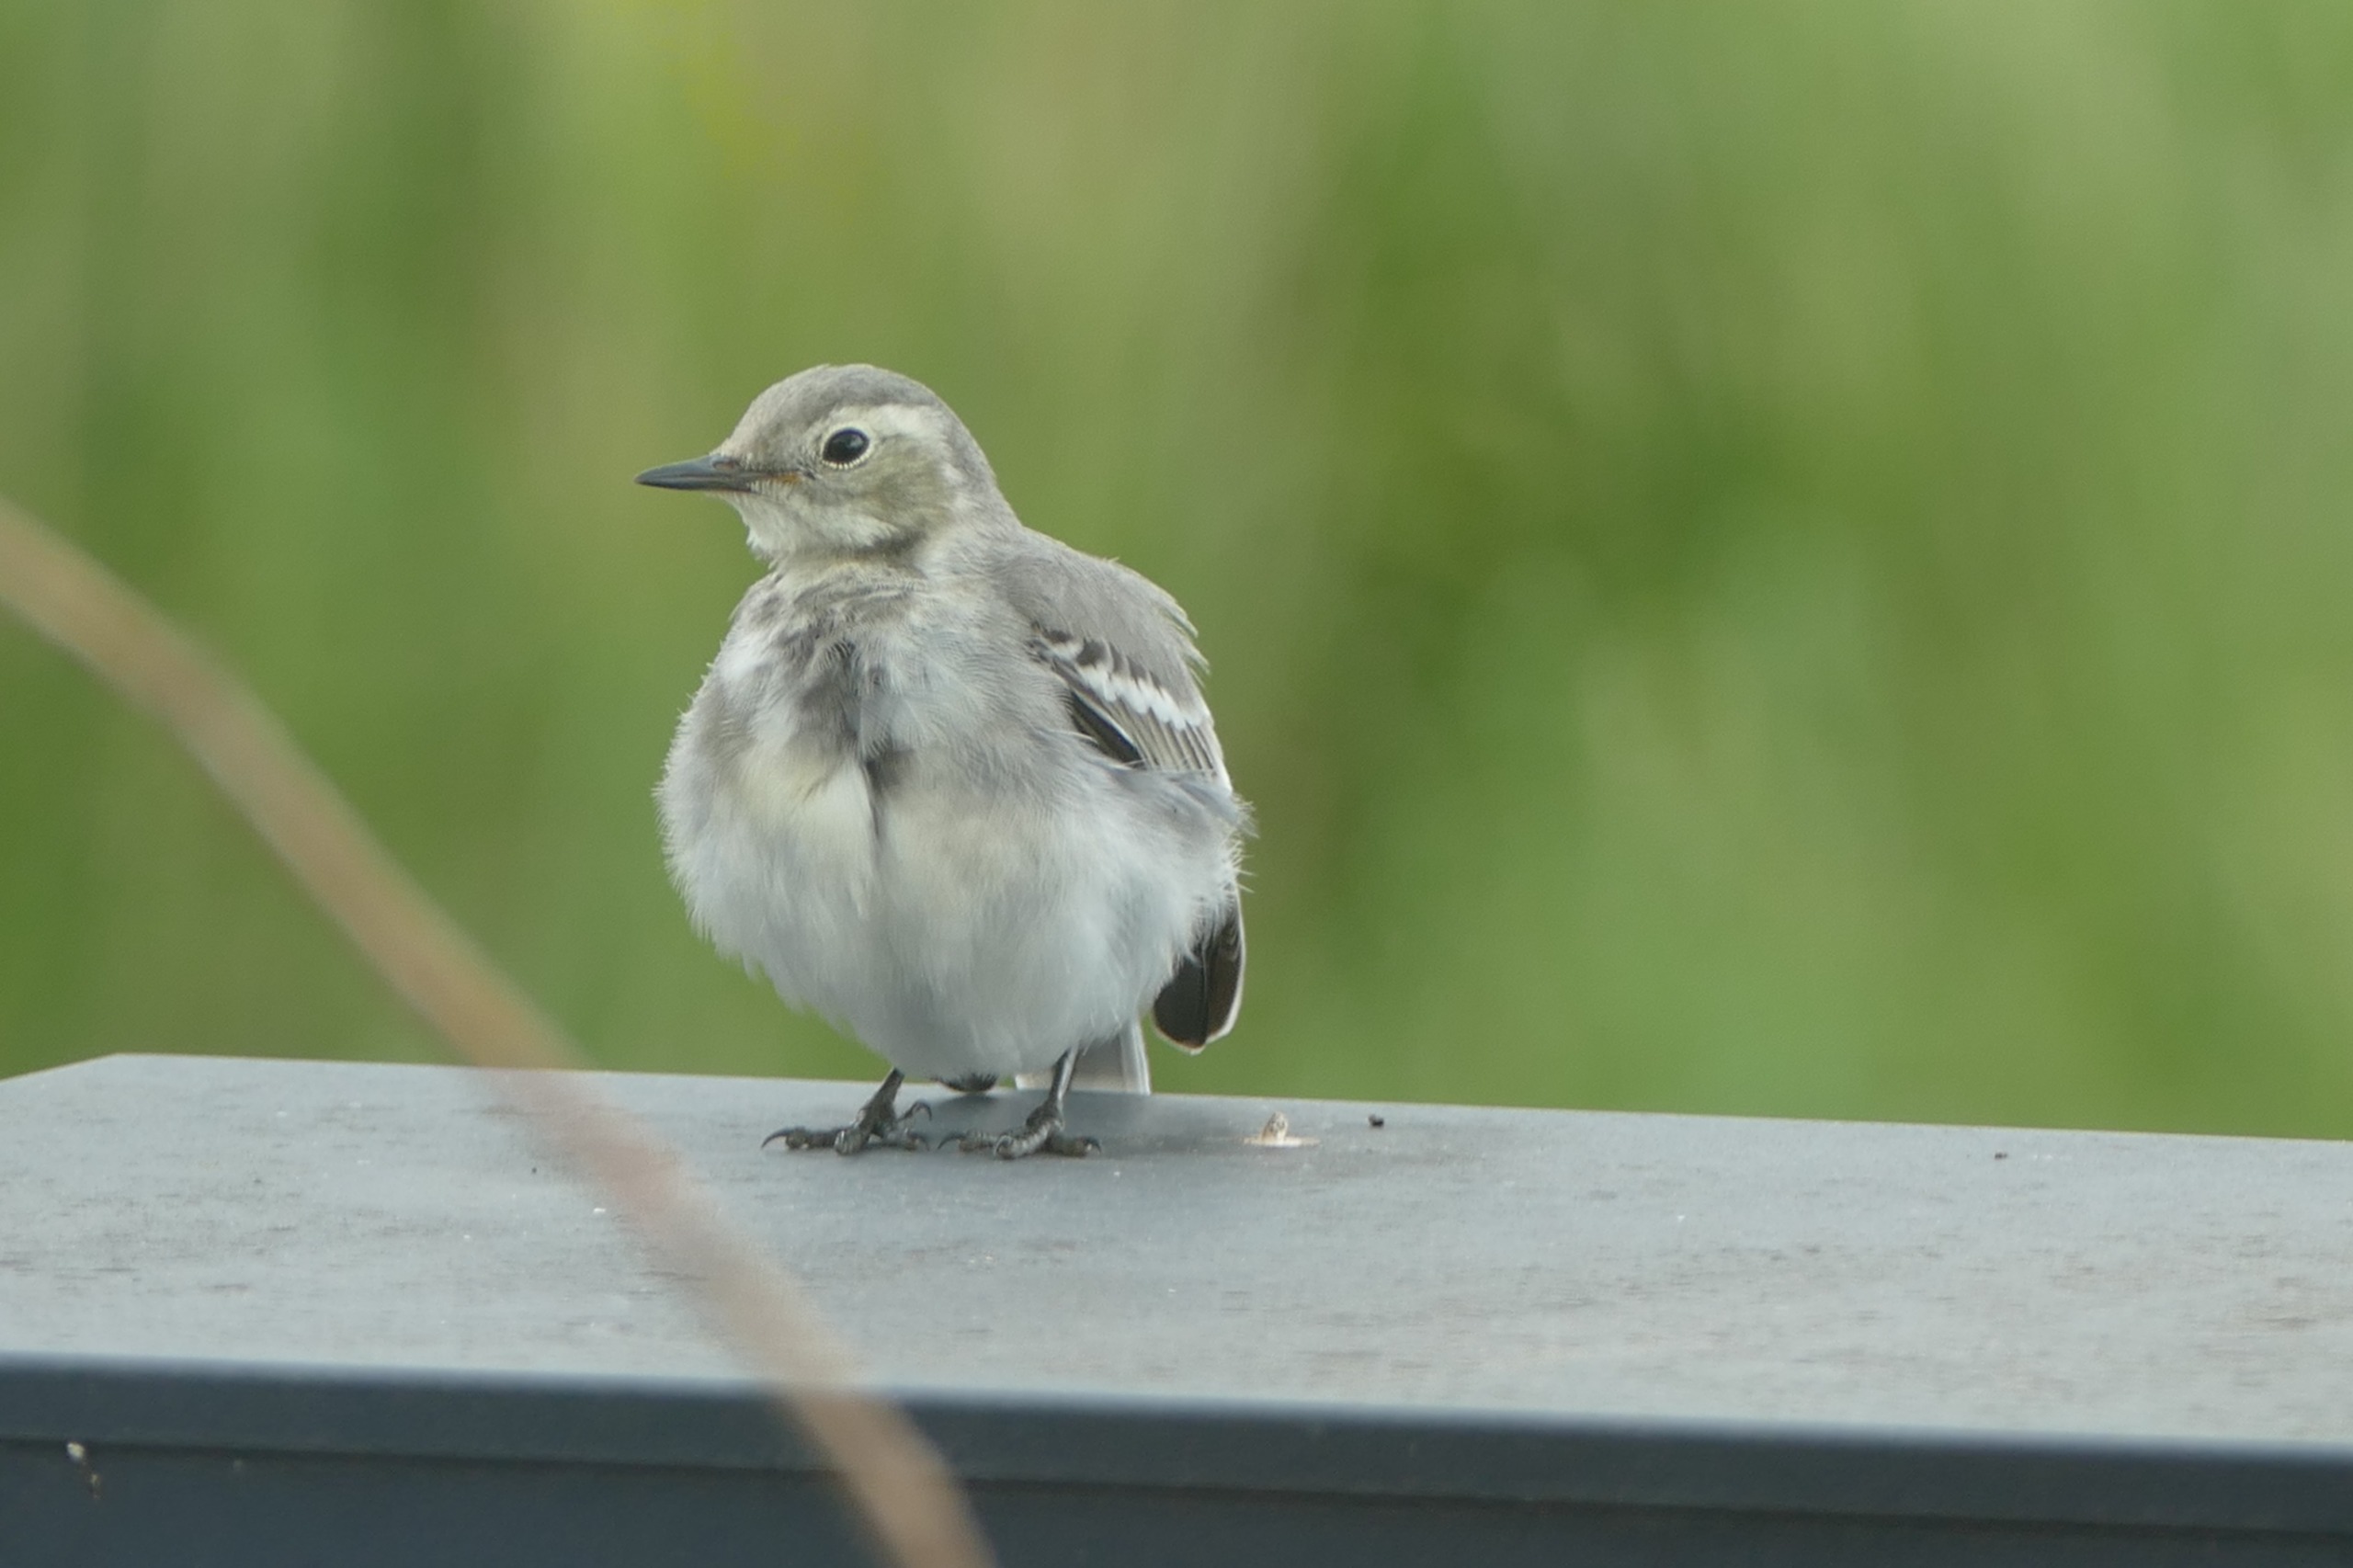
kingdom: Animalia
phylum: Chordata
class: Aves
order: Passeriformes
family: Motacillidae
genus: Motacilla
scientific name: Motacilla alba
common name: Hvid vipstjert
